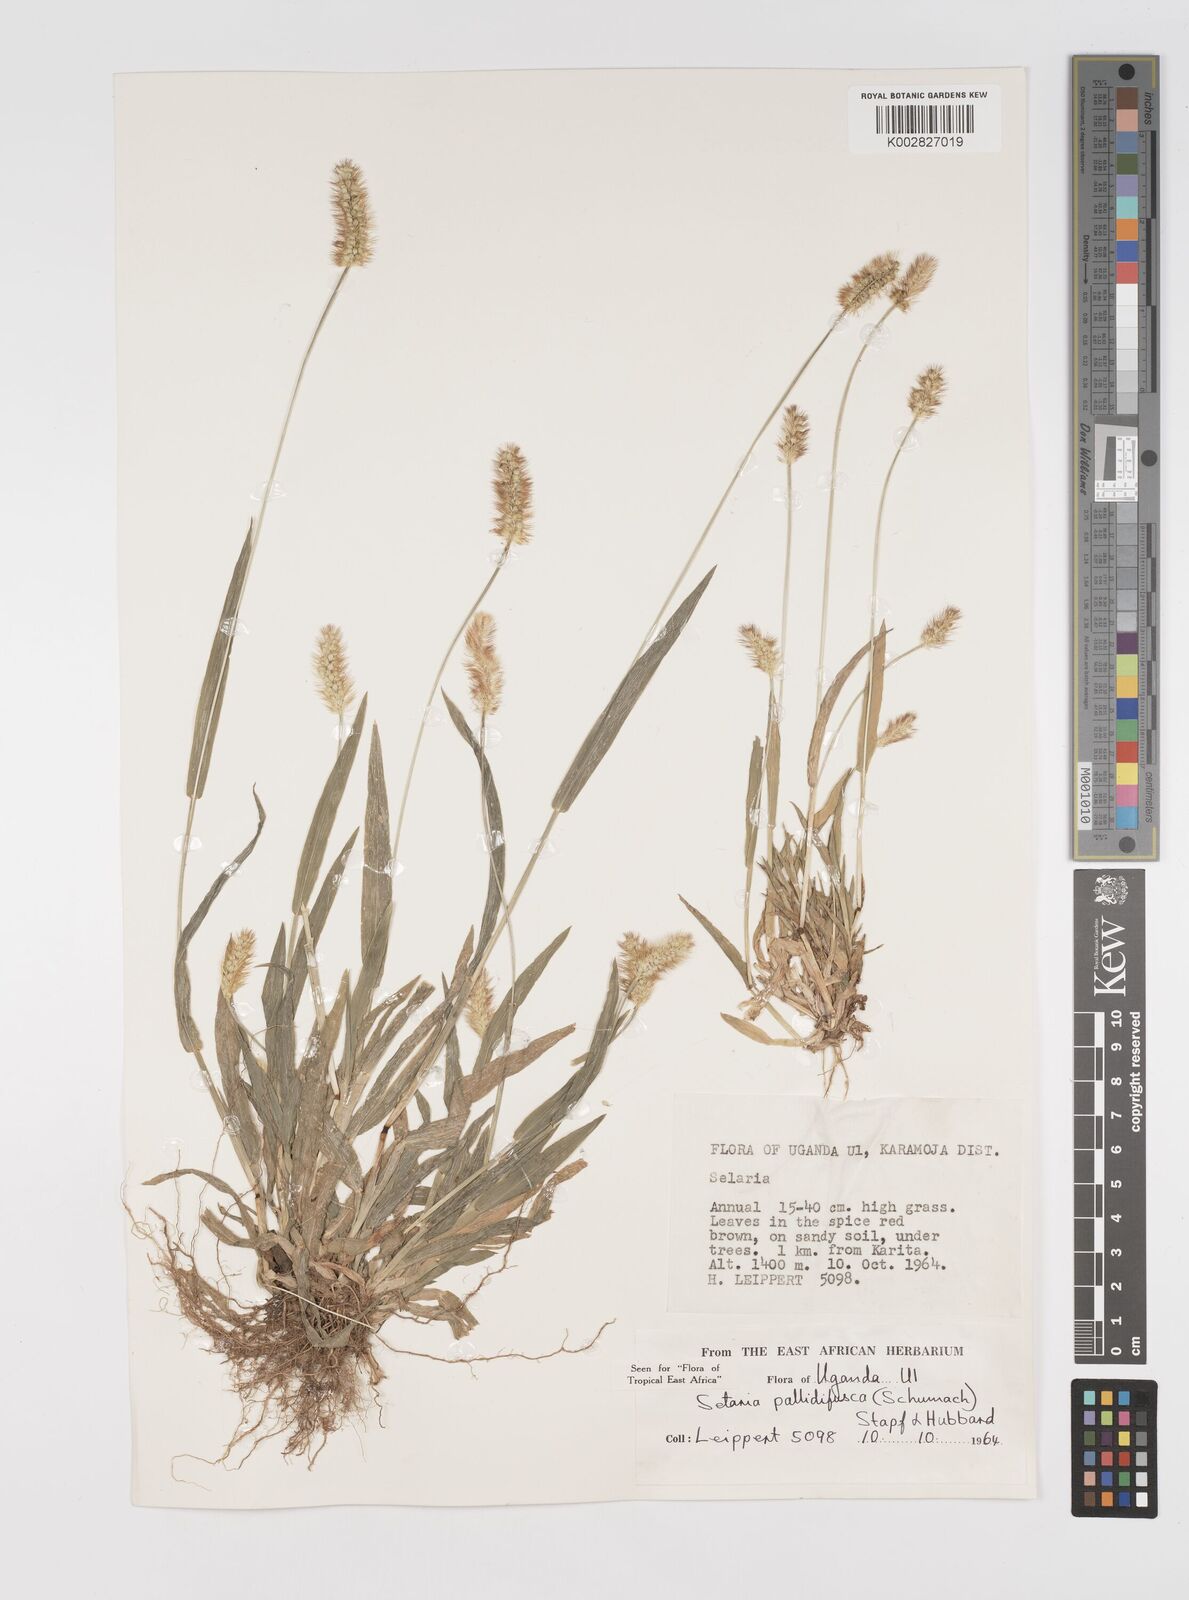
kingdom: Plantae
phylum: Tracheophyta
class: Liliopsida
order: Poales
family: Poaceae
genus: Setaria
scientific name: Setaria pumila
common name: Yellow bristle-grass
